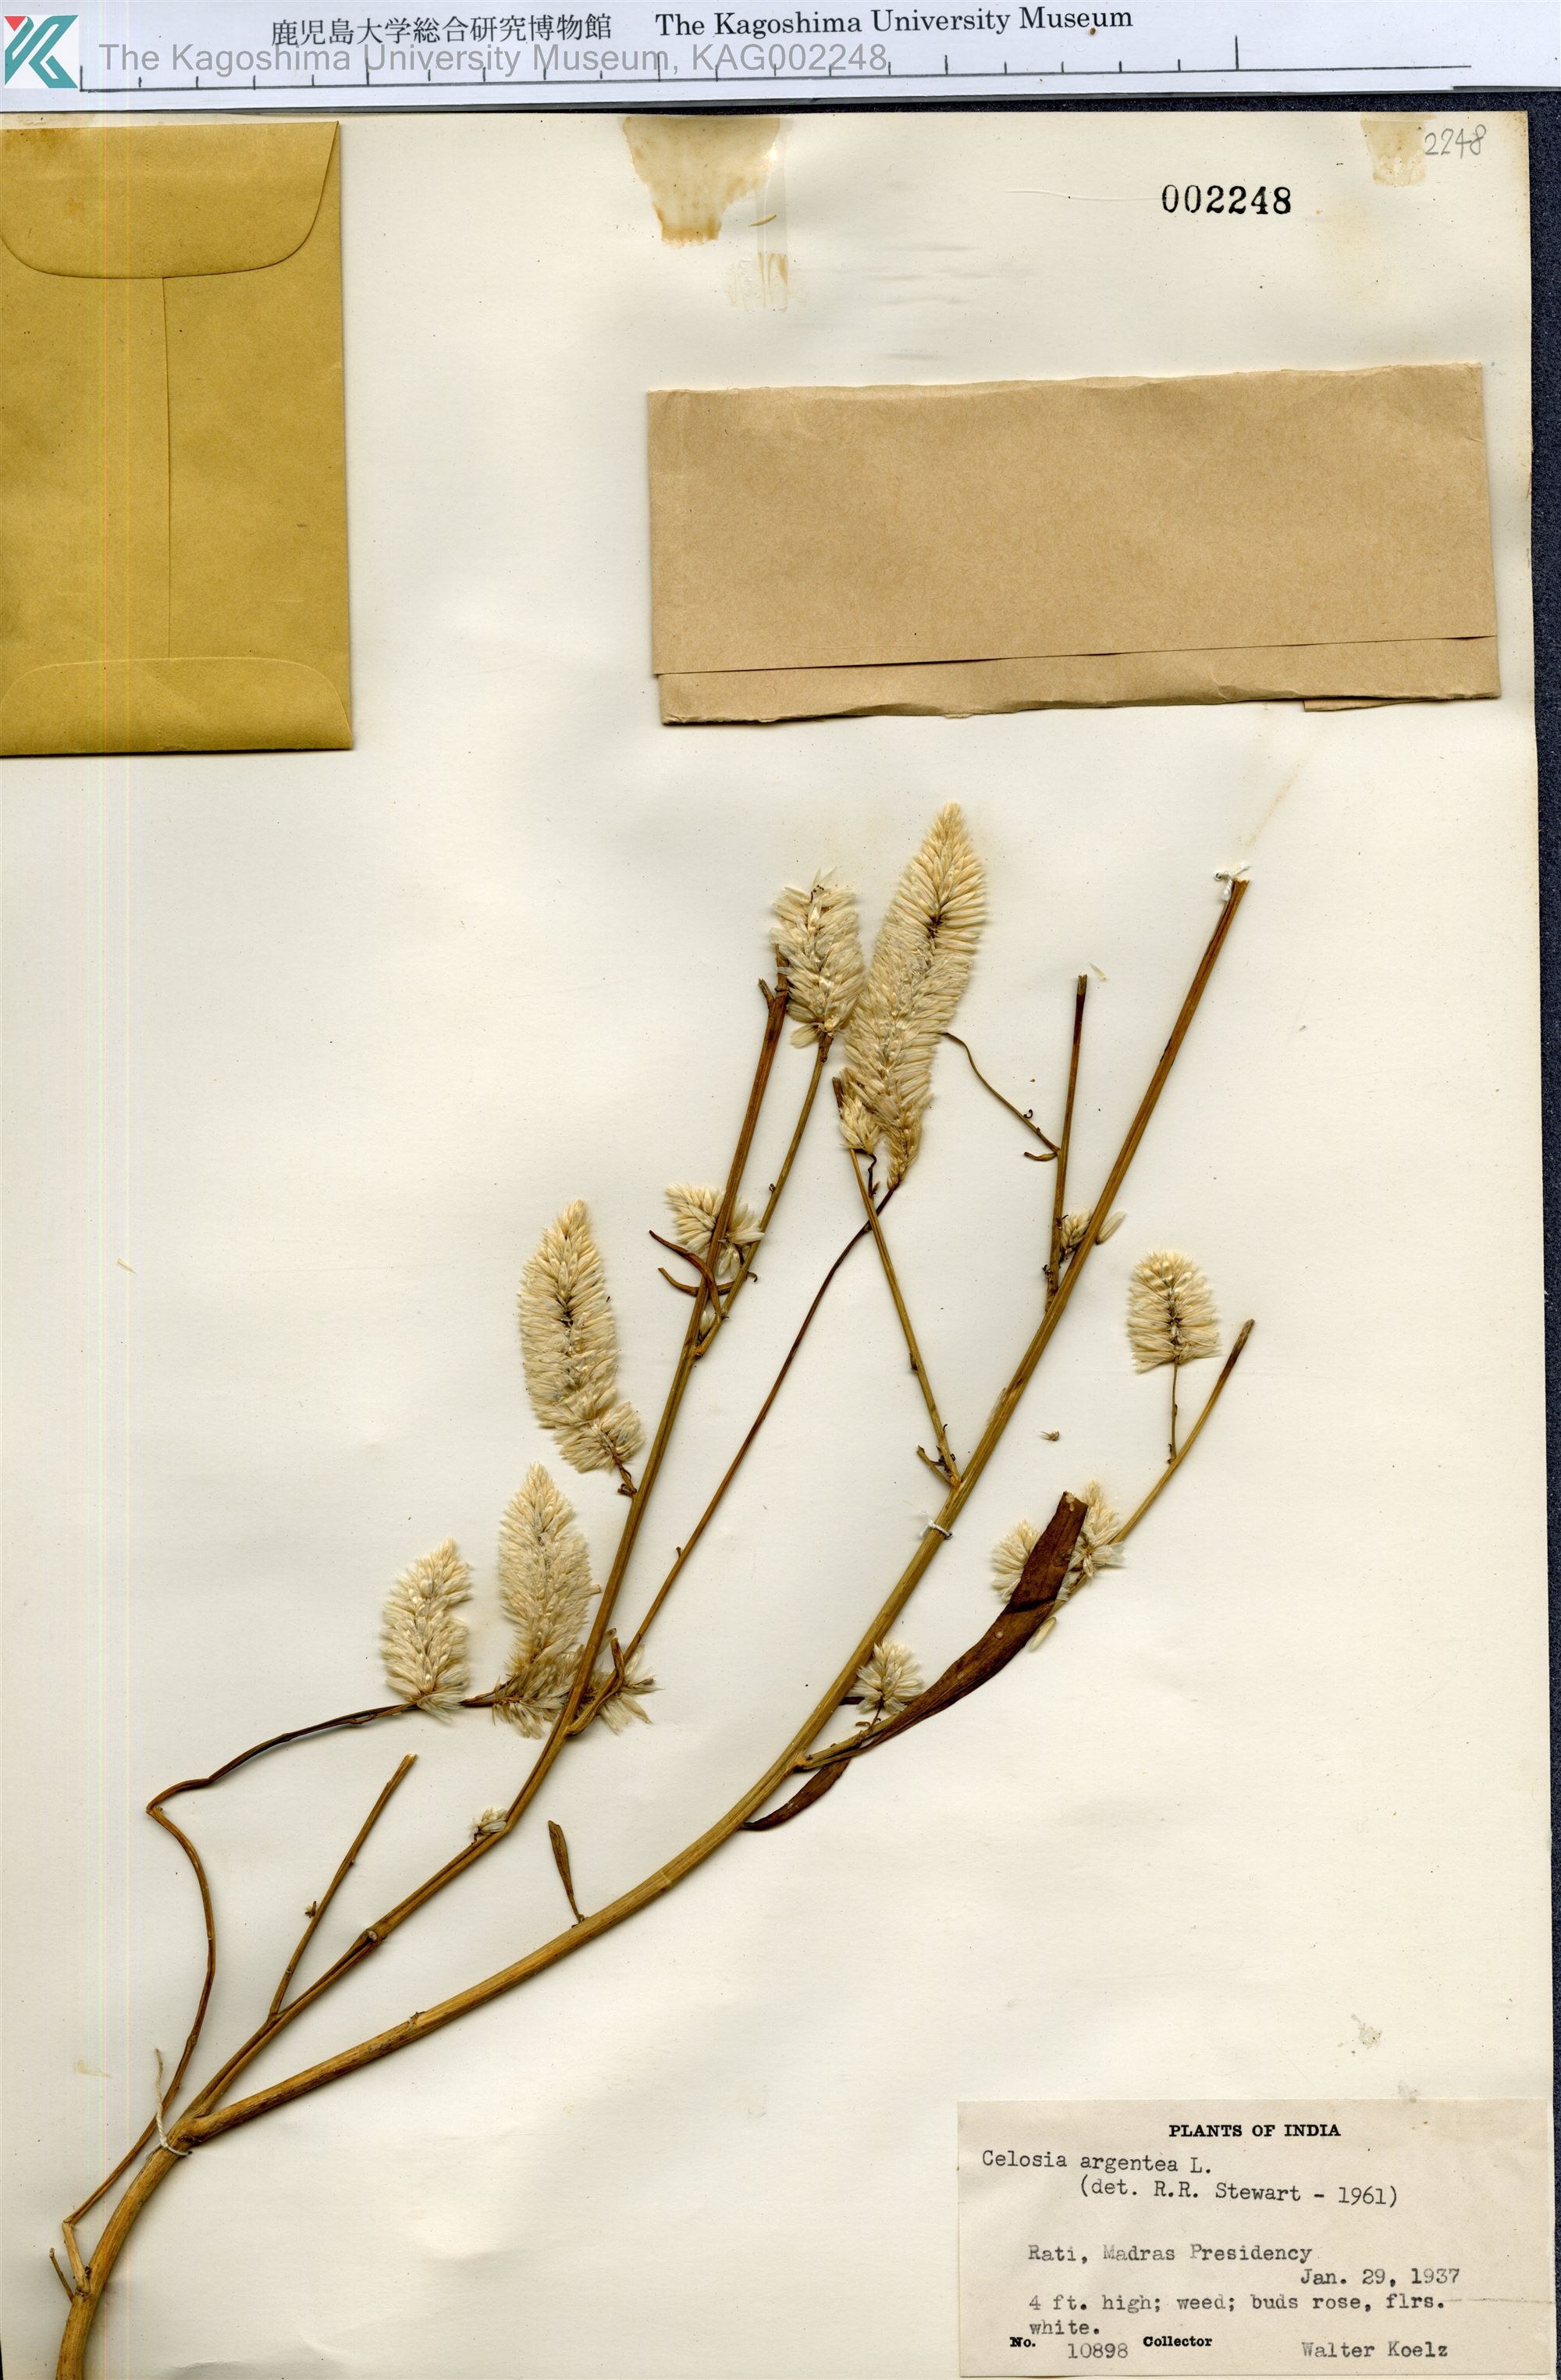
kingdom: Plantae
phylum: Tracheophyta
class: Magnoliopsida
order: Caryophyllales
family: Amaranthaceae
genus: Celosia
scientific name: Celosia argentea
